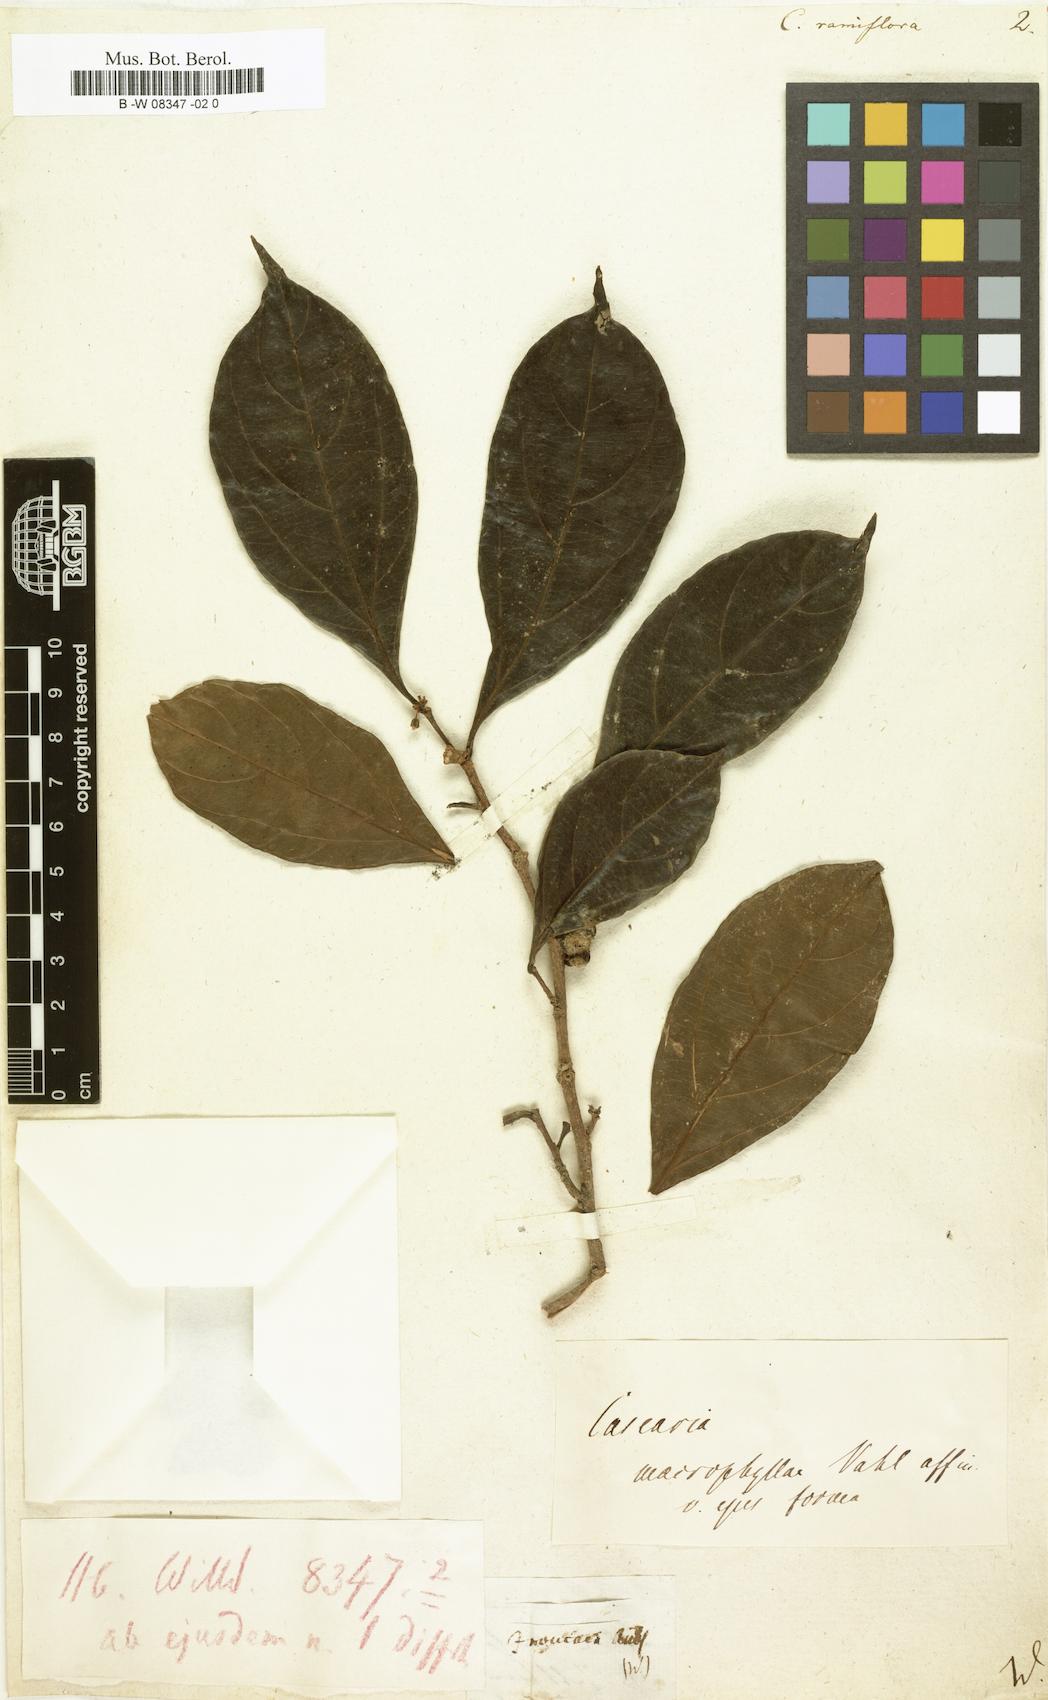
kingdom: Plantae
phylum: Tracheophyta
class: Magnoliopsida
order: Malpighiales
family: Salicaceae
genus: Casearia
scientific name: Casearia
